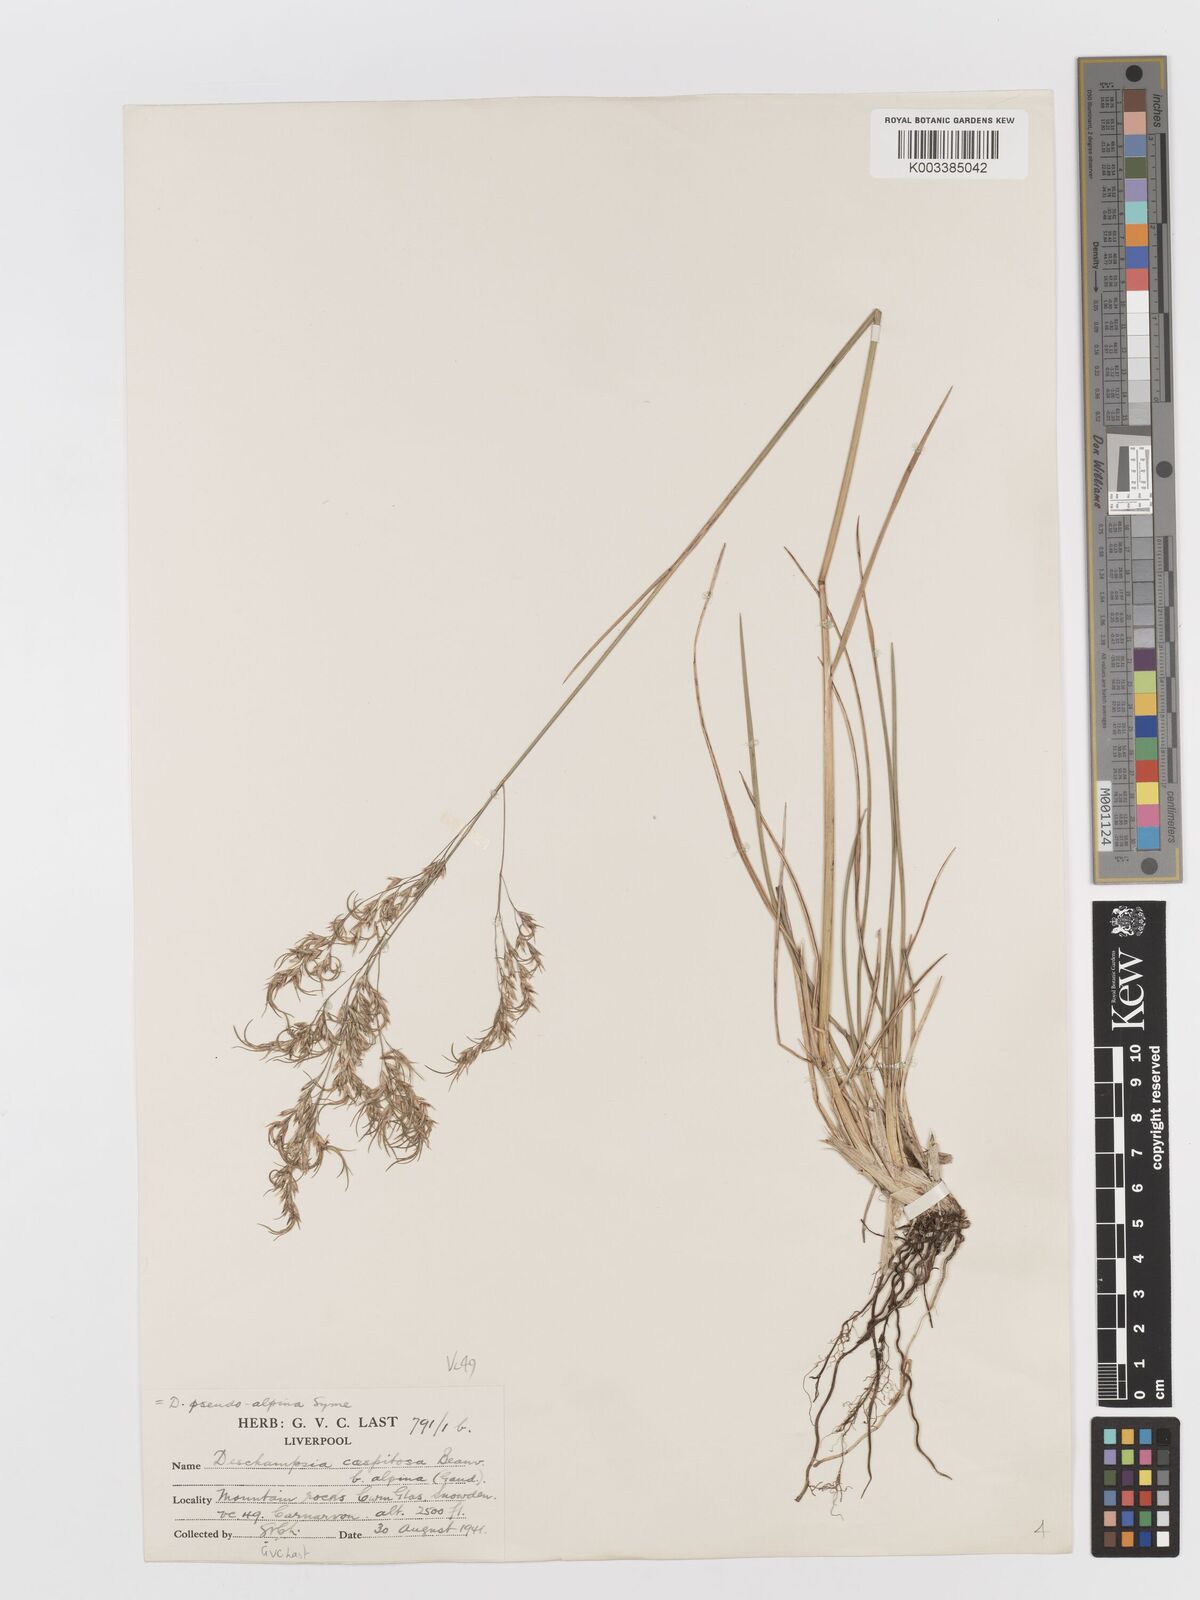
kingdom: Plantae
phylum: Tracheophyta
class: Liliopsida
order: Poales
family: Poaceae
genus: Deschampsia
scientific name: Deschampsia cespitosa
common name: Tufted hair-grass
